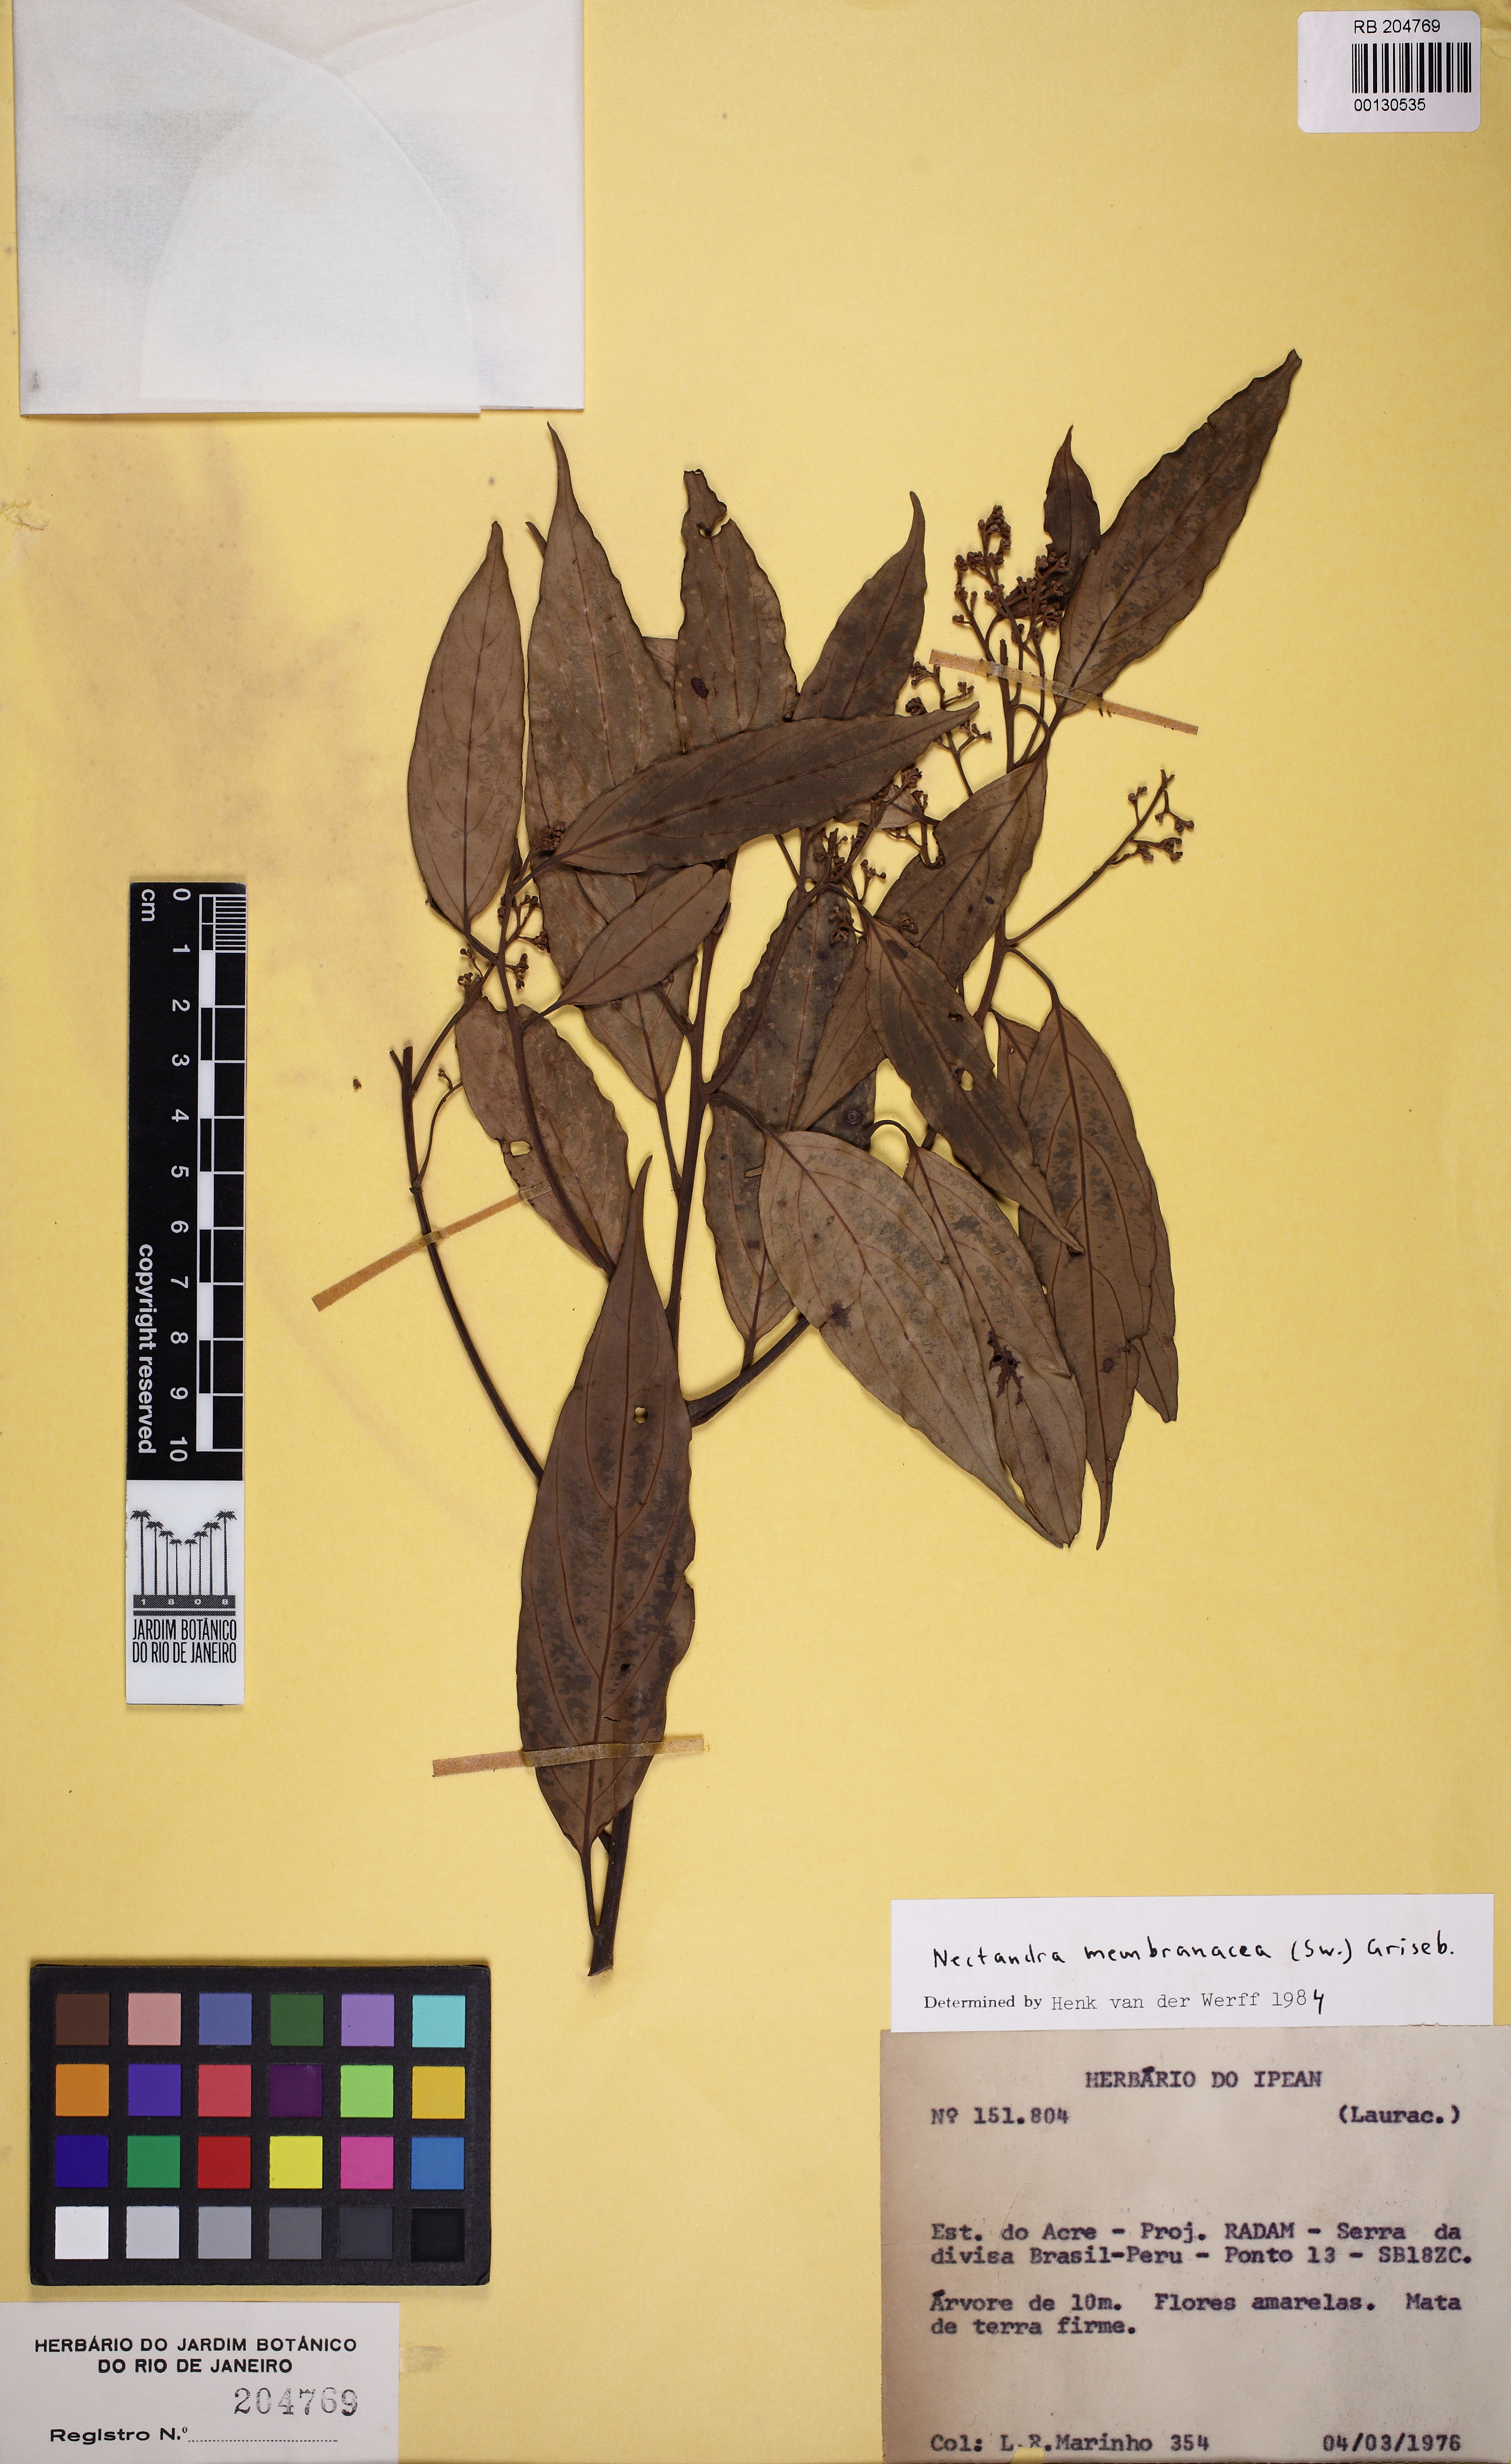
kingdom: Plantae
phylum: Tracheophyta
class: Magnoliopsida
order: Laurales
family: Lauraceae
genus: Nectandra
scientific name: Nectandra membranacea
